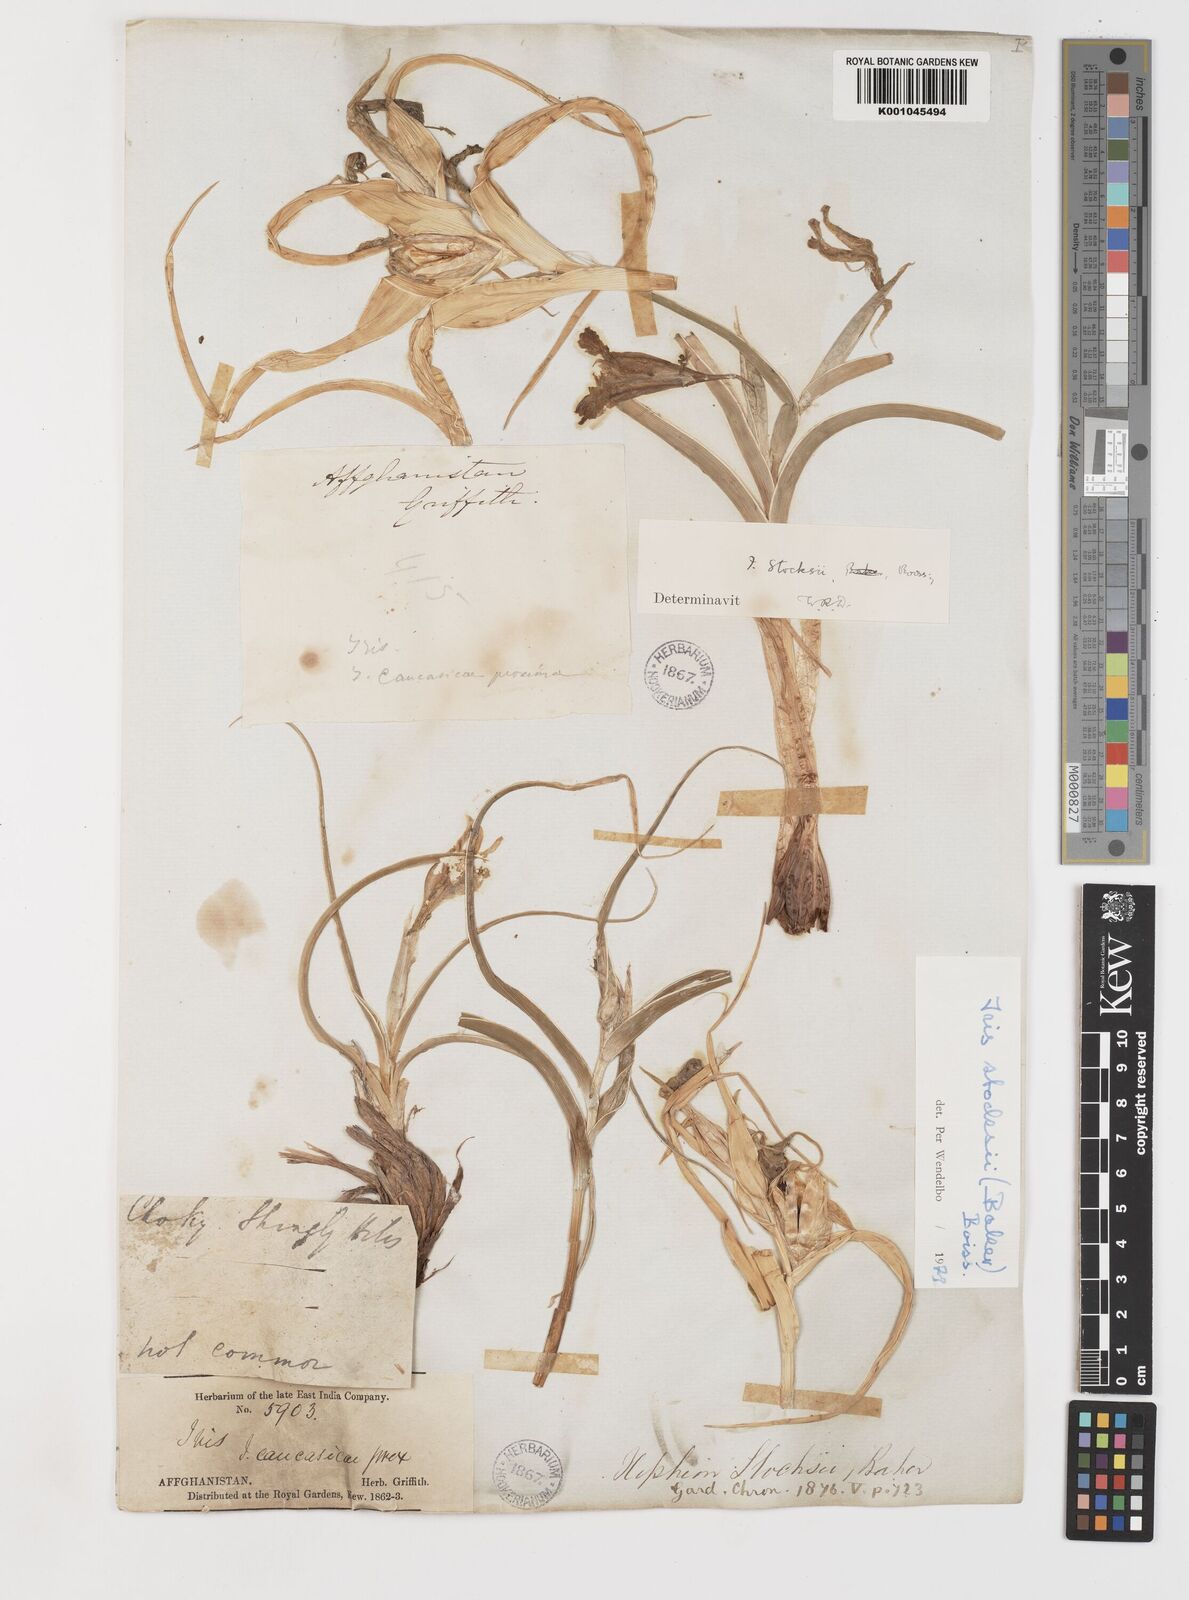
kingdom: Plantae
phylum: Tracheophyta
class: Liliopsida
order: Asparagales
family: Iridaceae
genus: Iris
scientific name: Iris stocksii
